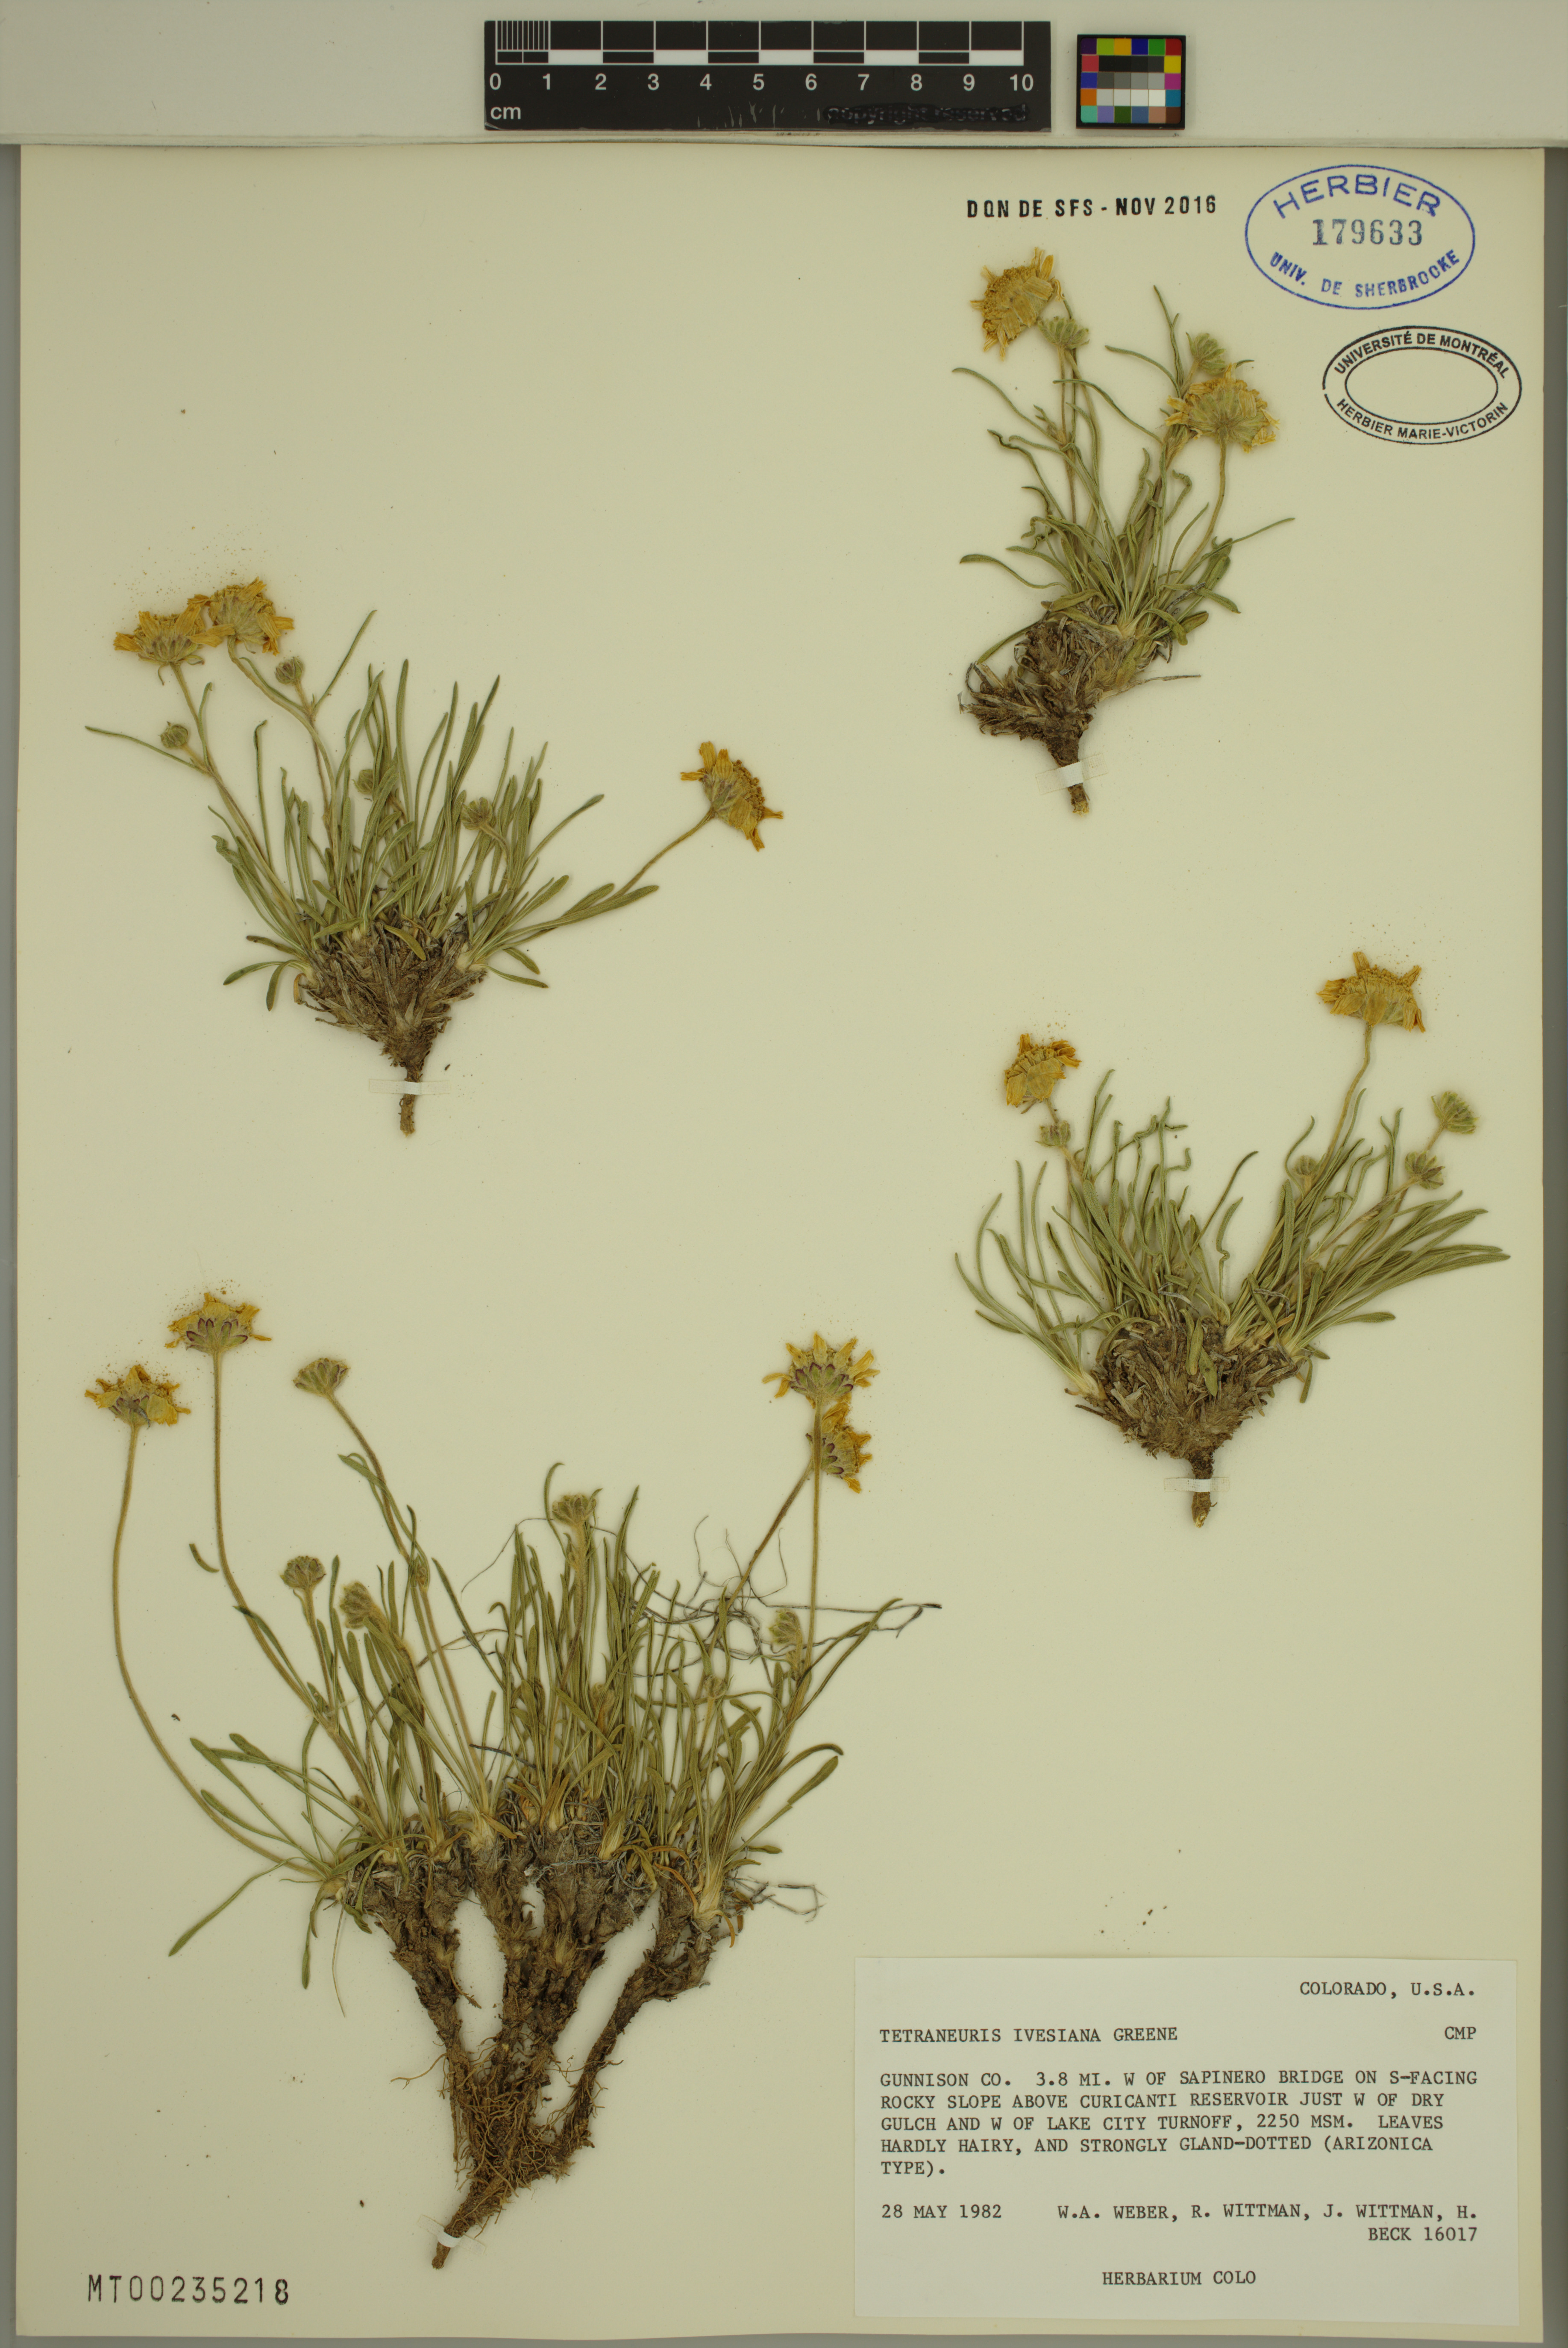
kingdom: Plantae
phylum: Tracheophyta
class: Magnoliopsida
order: Asterales
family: Asteraceae
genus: Tetraneuris
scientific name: Tetraneuris ivesiana
